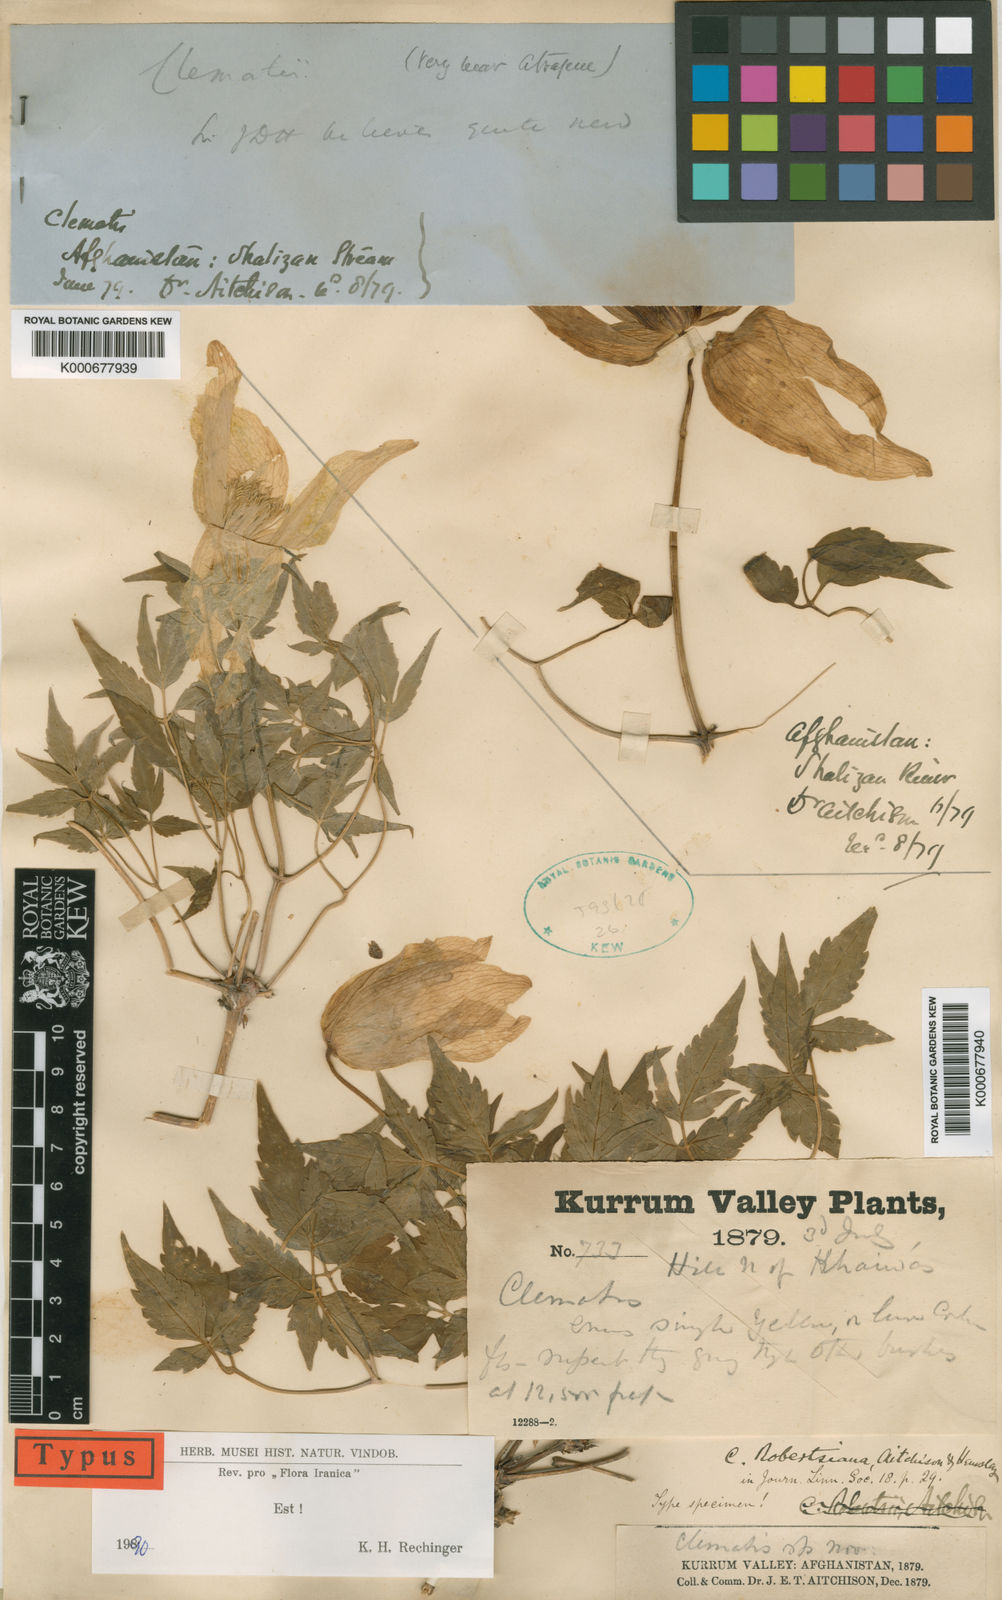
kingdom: Plantae
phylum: Tracheophyta
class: Magnoliopsida
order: Ranunculales
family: Ranunculaceae
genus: Clematis
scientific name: Clematis robertsiana
